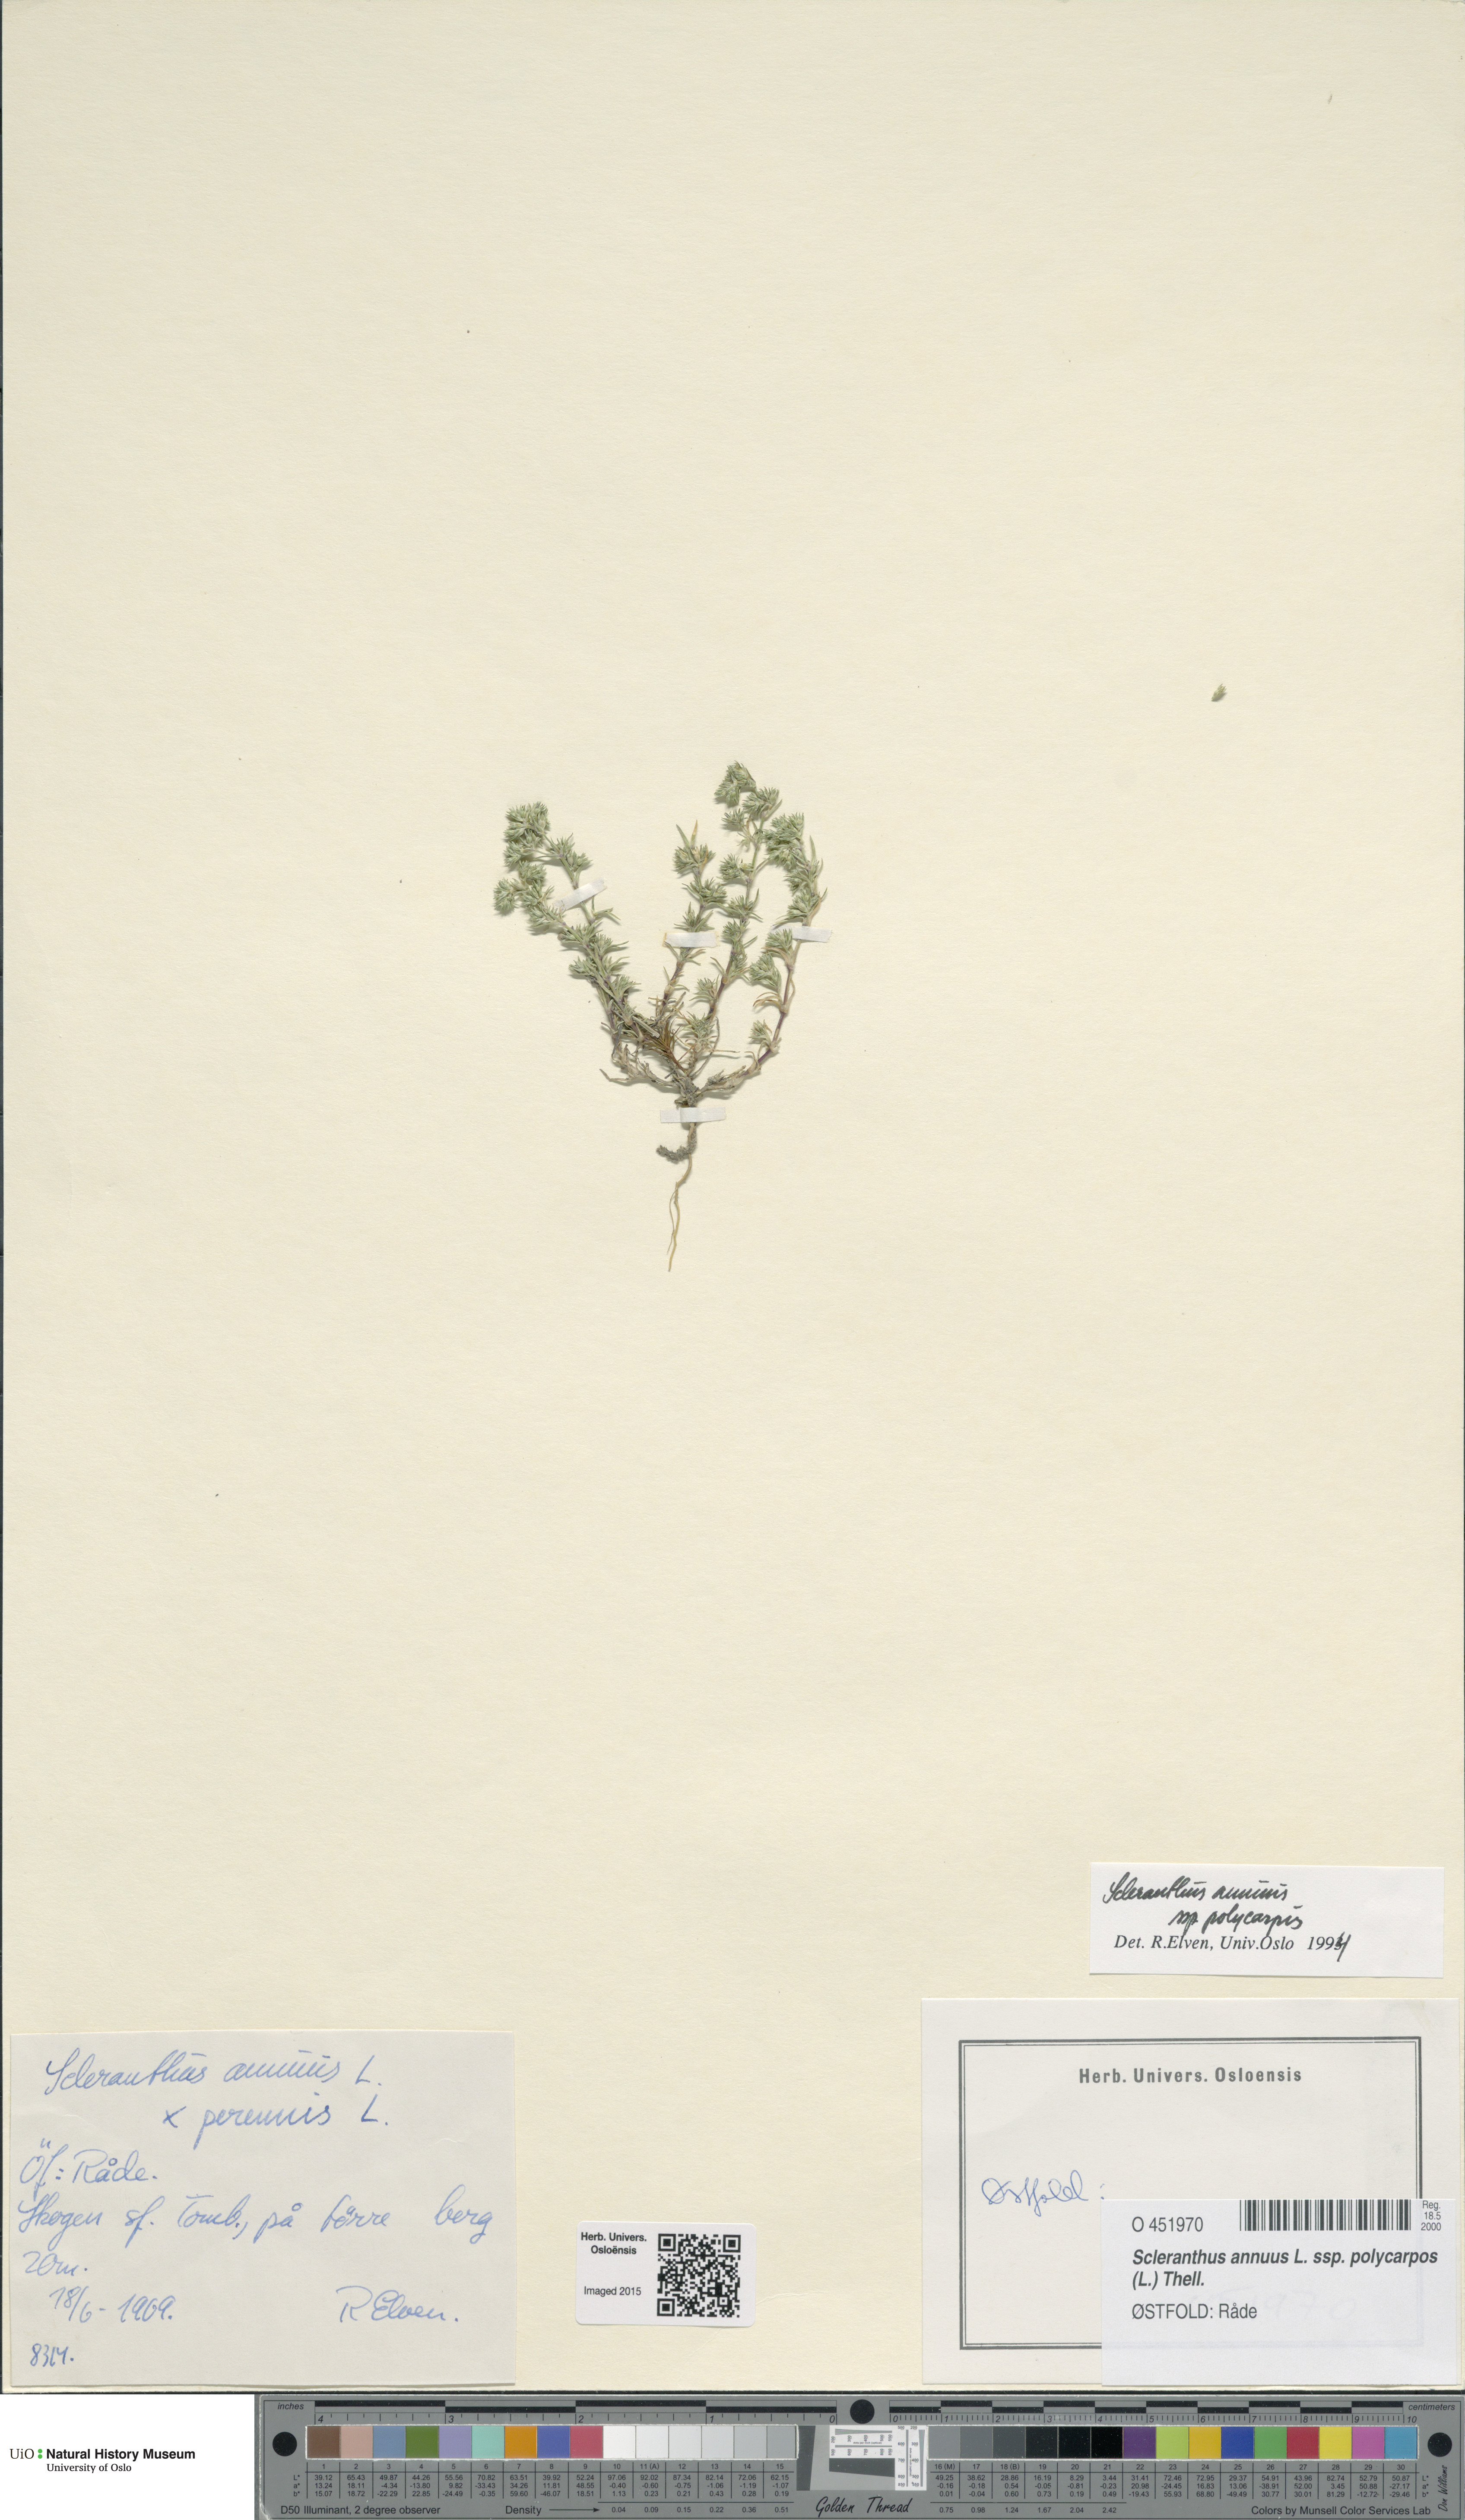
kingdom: Plantae
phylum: Tracheophyta
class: Magnoliopsida
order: Caryophyllales
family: Caryophyllaceae
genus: Scleranthus
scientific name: Scleranthus annuus
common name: Annual knawel
